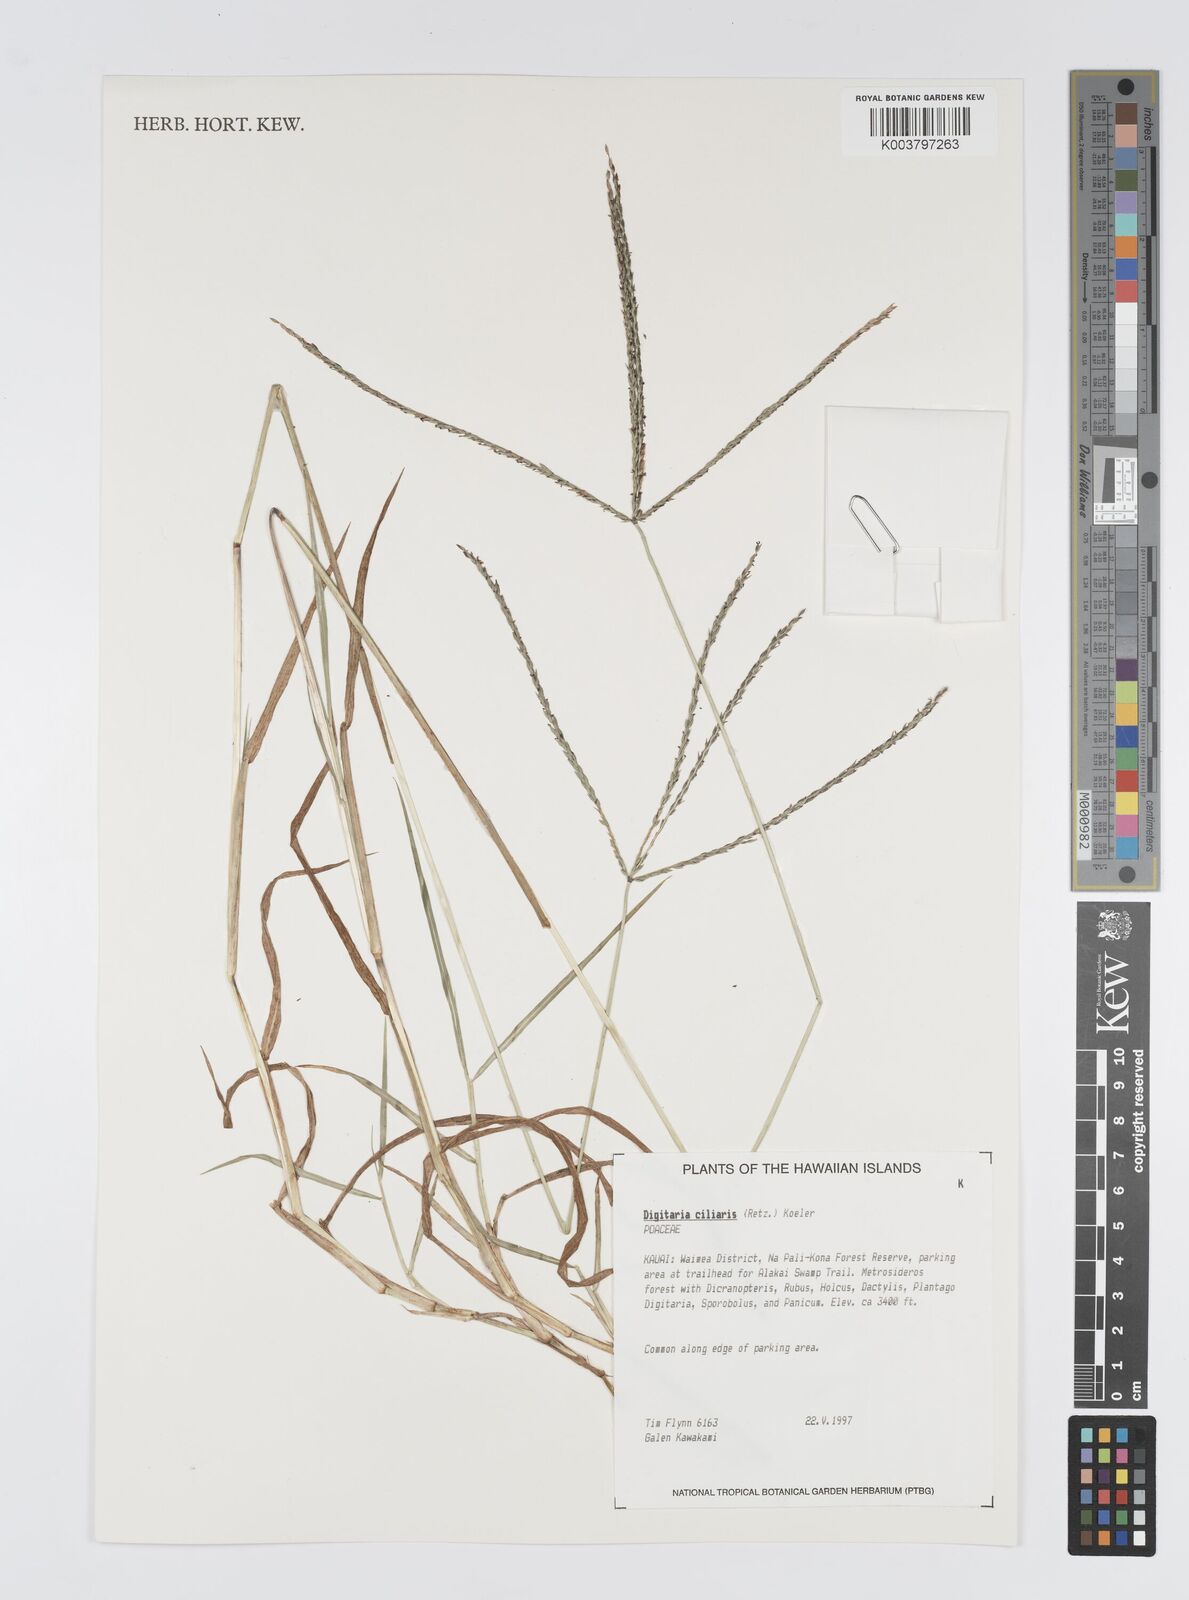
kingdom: Plantae
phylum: Tracheophyta
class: Liliopsida
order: Poales
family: Poaceae
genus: Digitaria
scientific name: Digitaria ciliaris
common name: Tropical finger-grass
